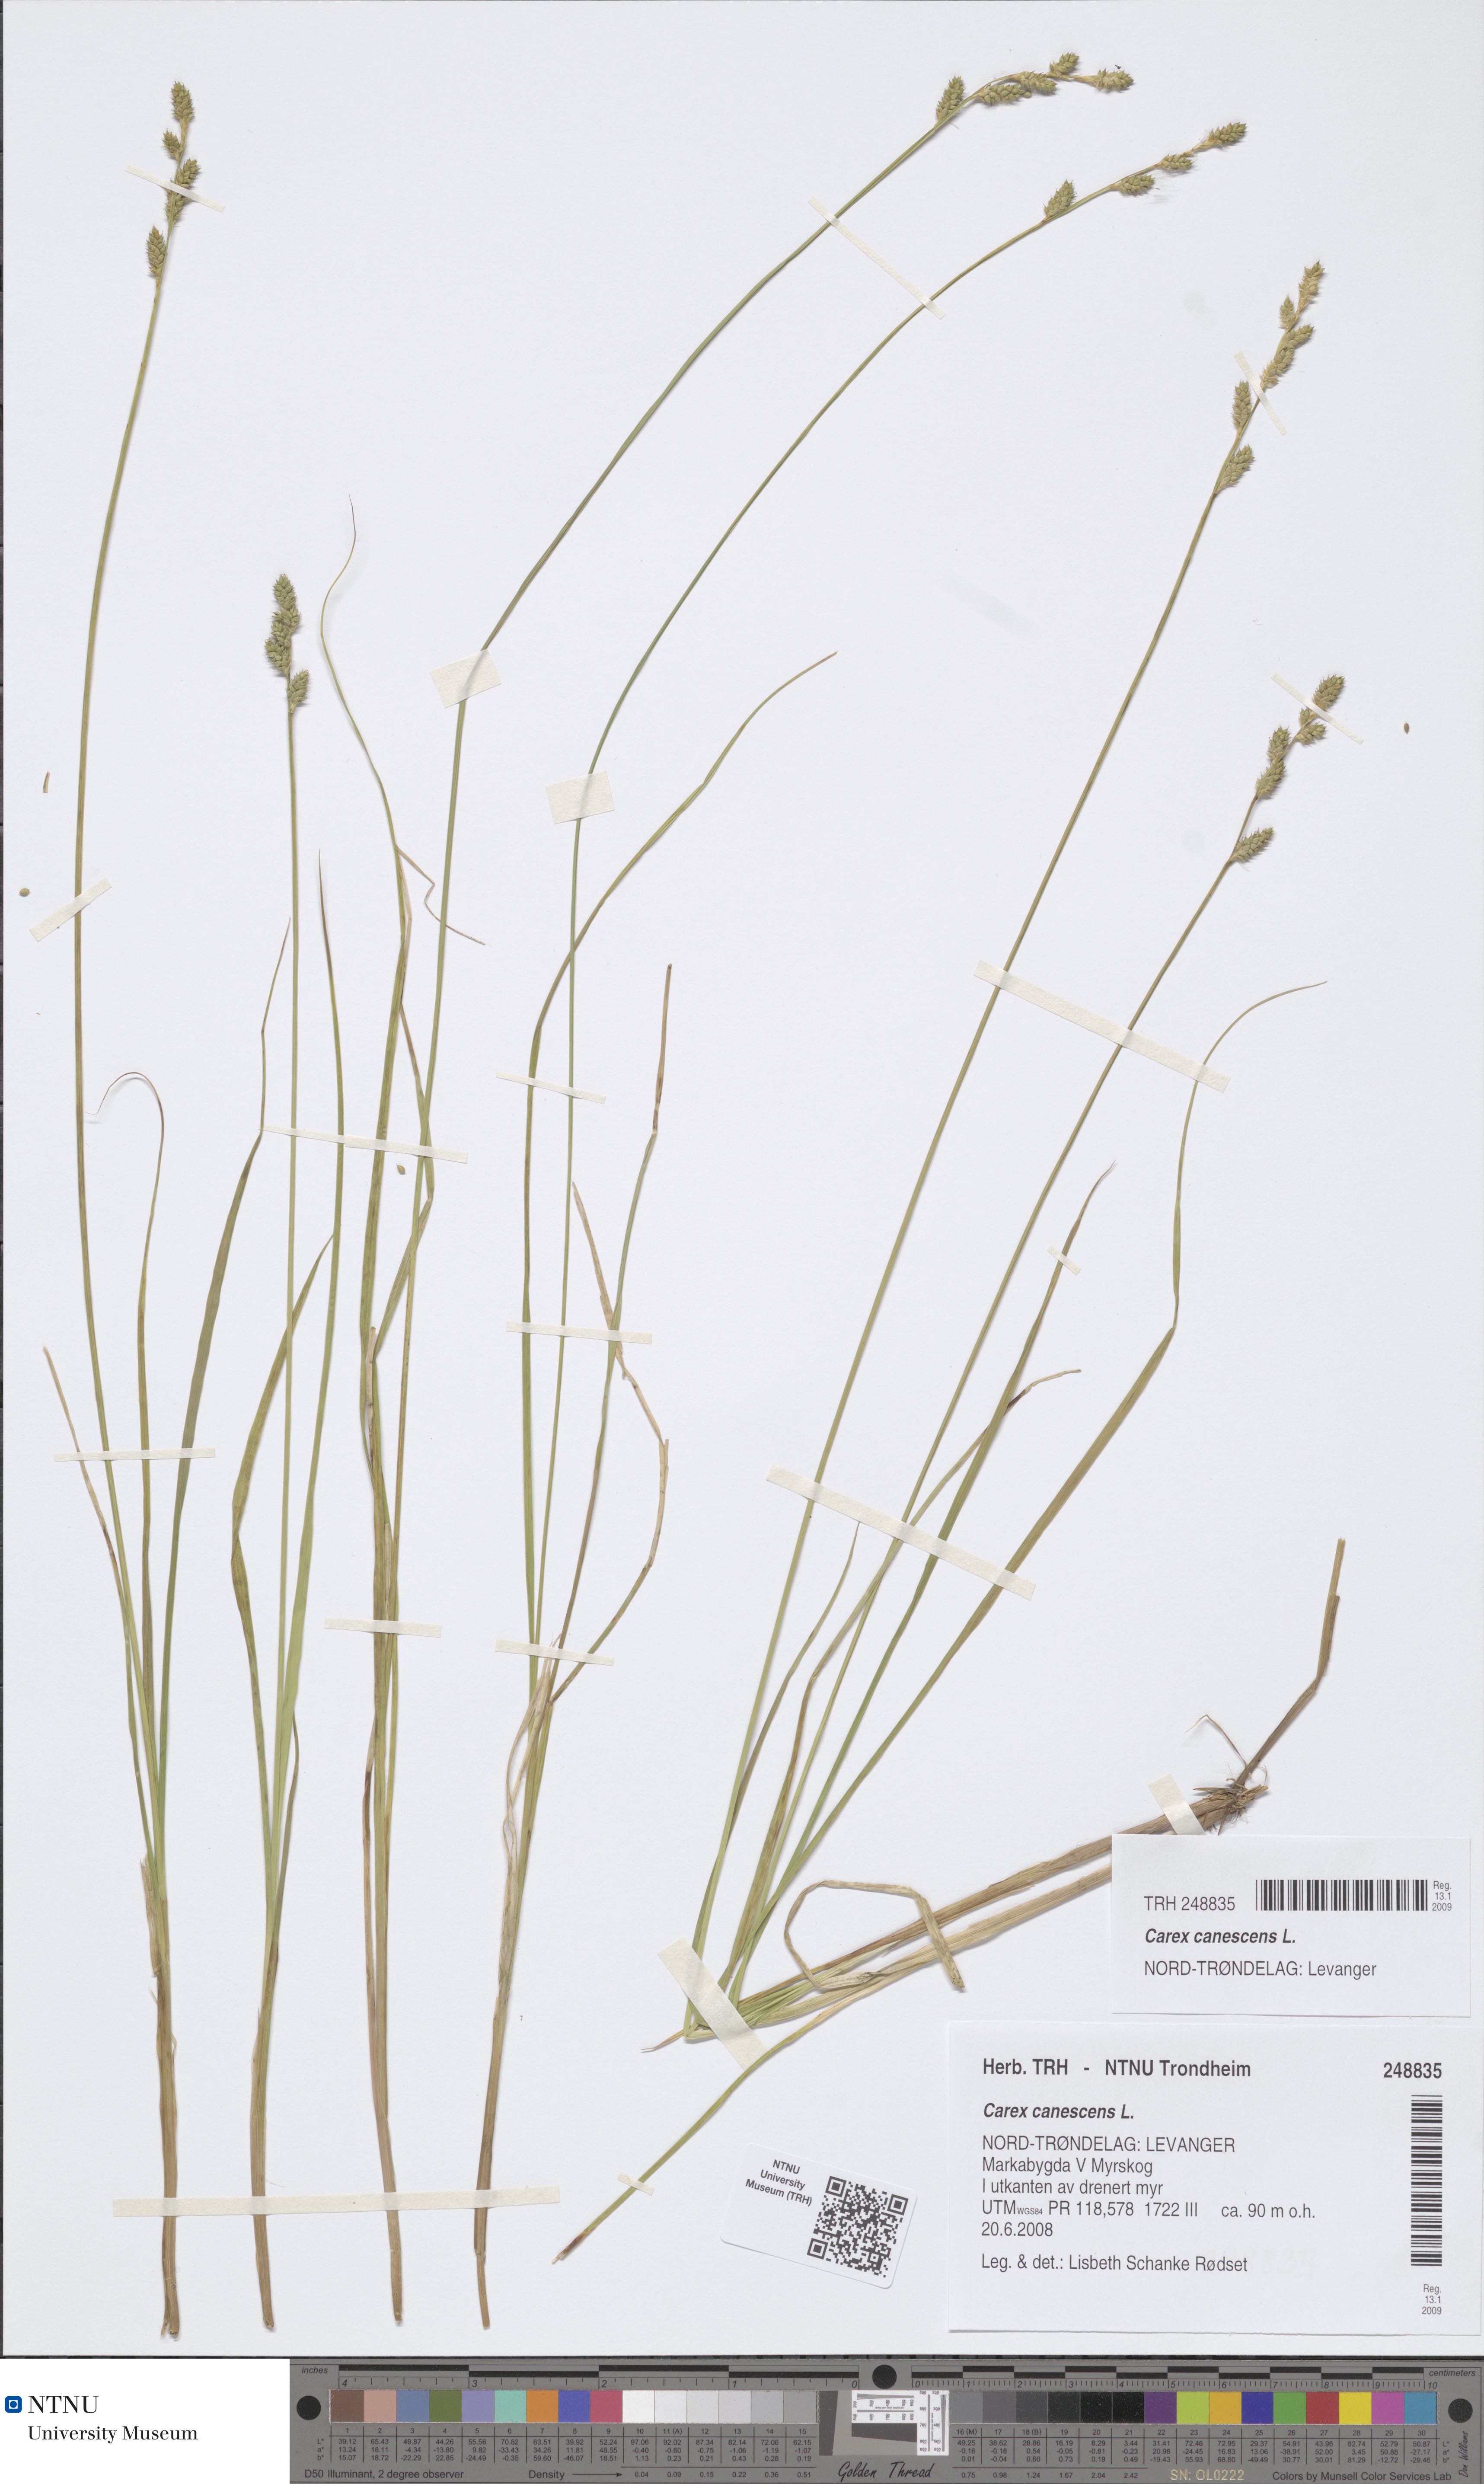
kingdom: Plantae
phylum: Tracheophyta
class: Liliopsida
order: Poales
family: Cyperaceae
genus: Carex
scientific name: Carex canescens
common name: White sedge
